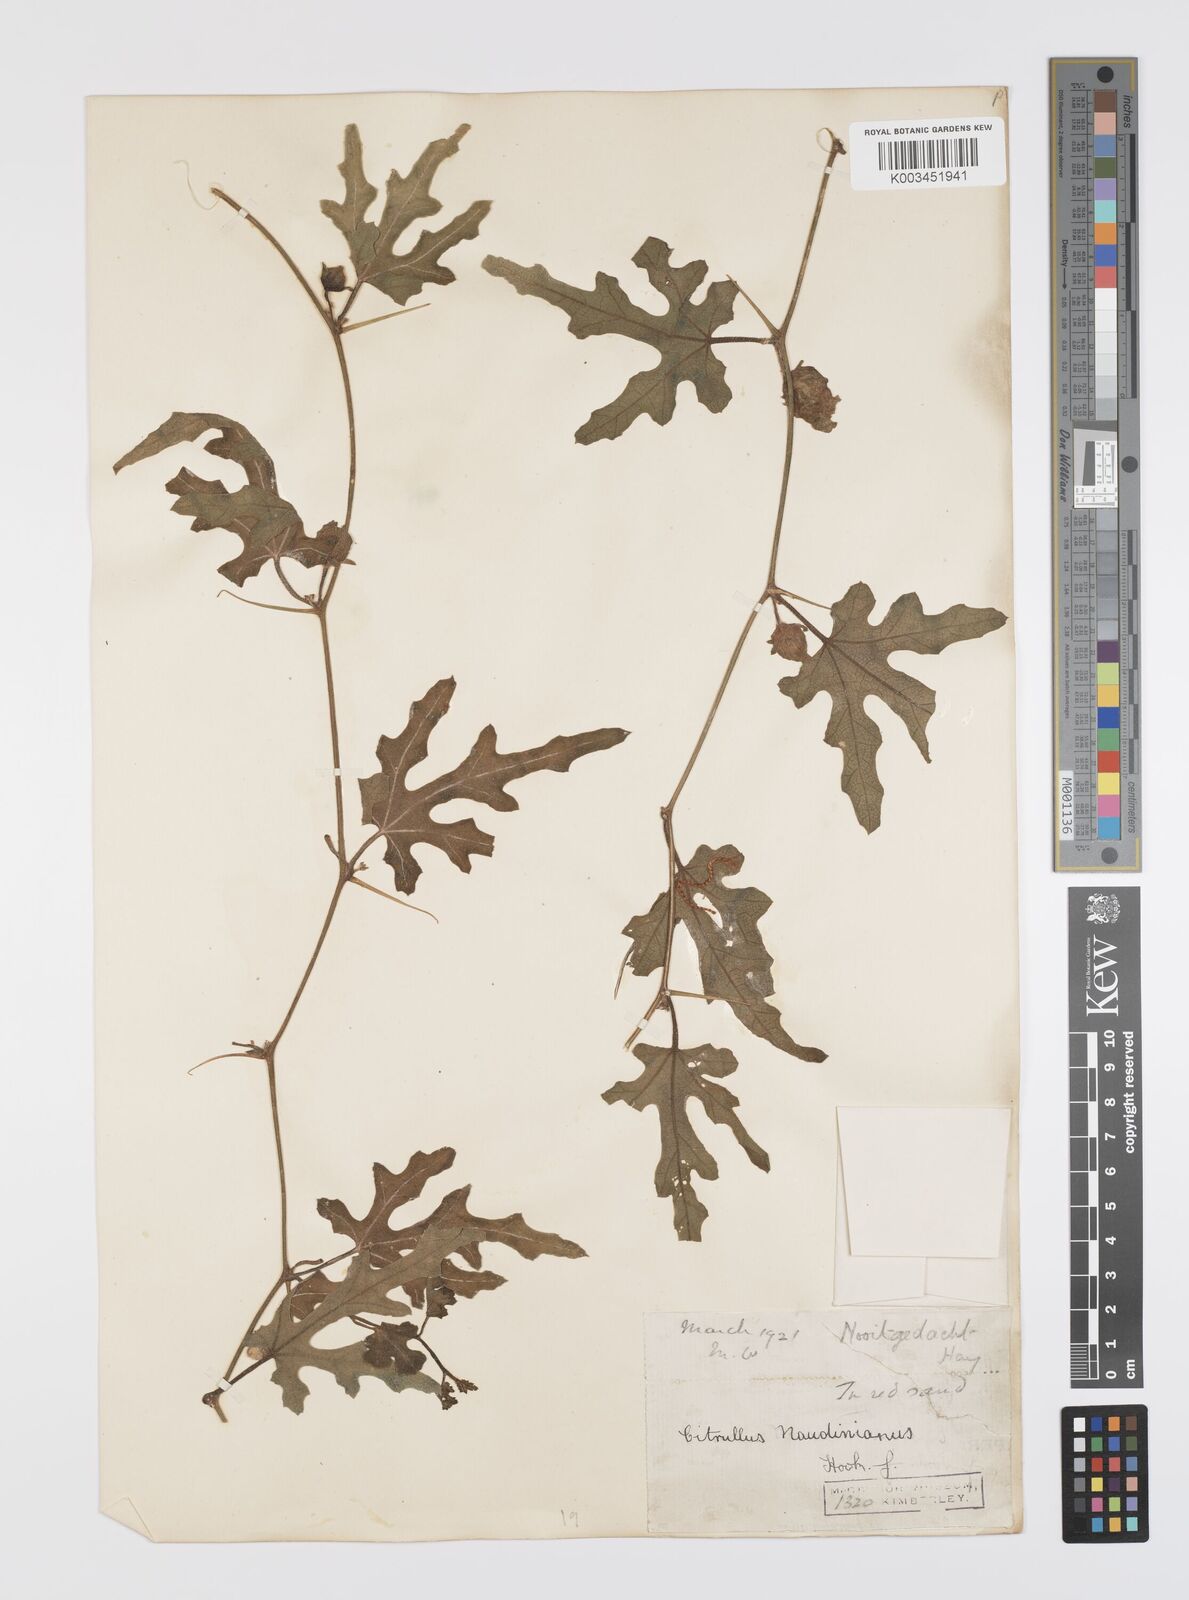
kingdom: Plantae
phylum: Tracheophyta
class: Magnoliopsida
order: Cucurbitales
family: Cucurbitaceae
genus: Citrullus
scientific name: Citrullus naudinianus
